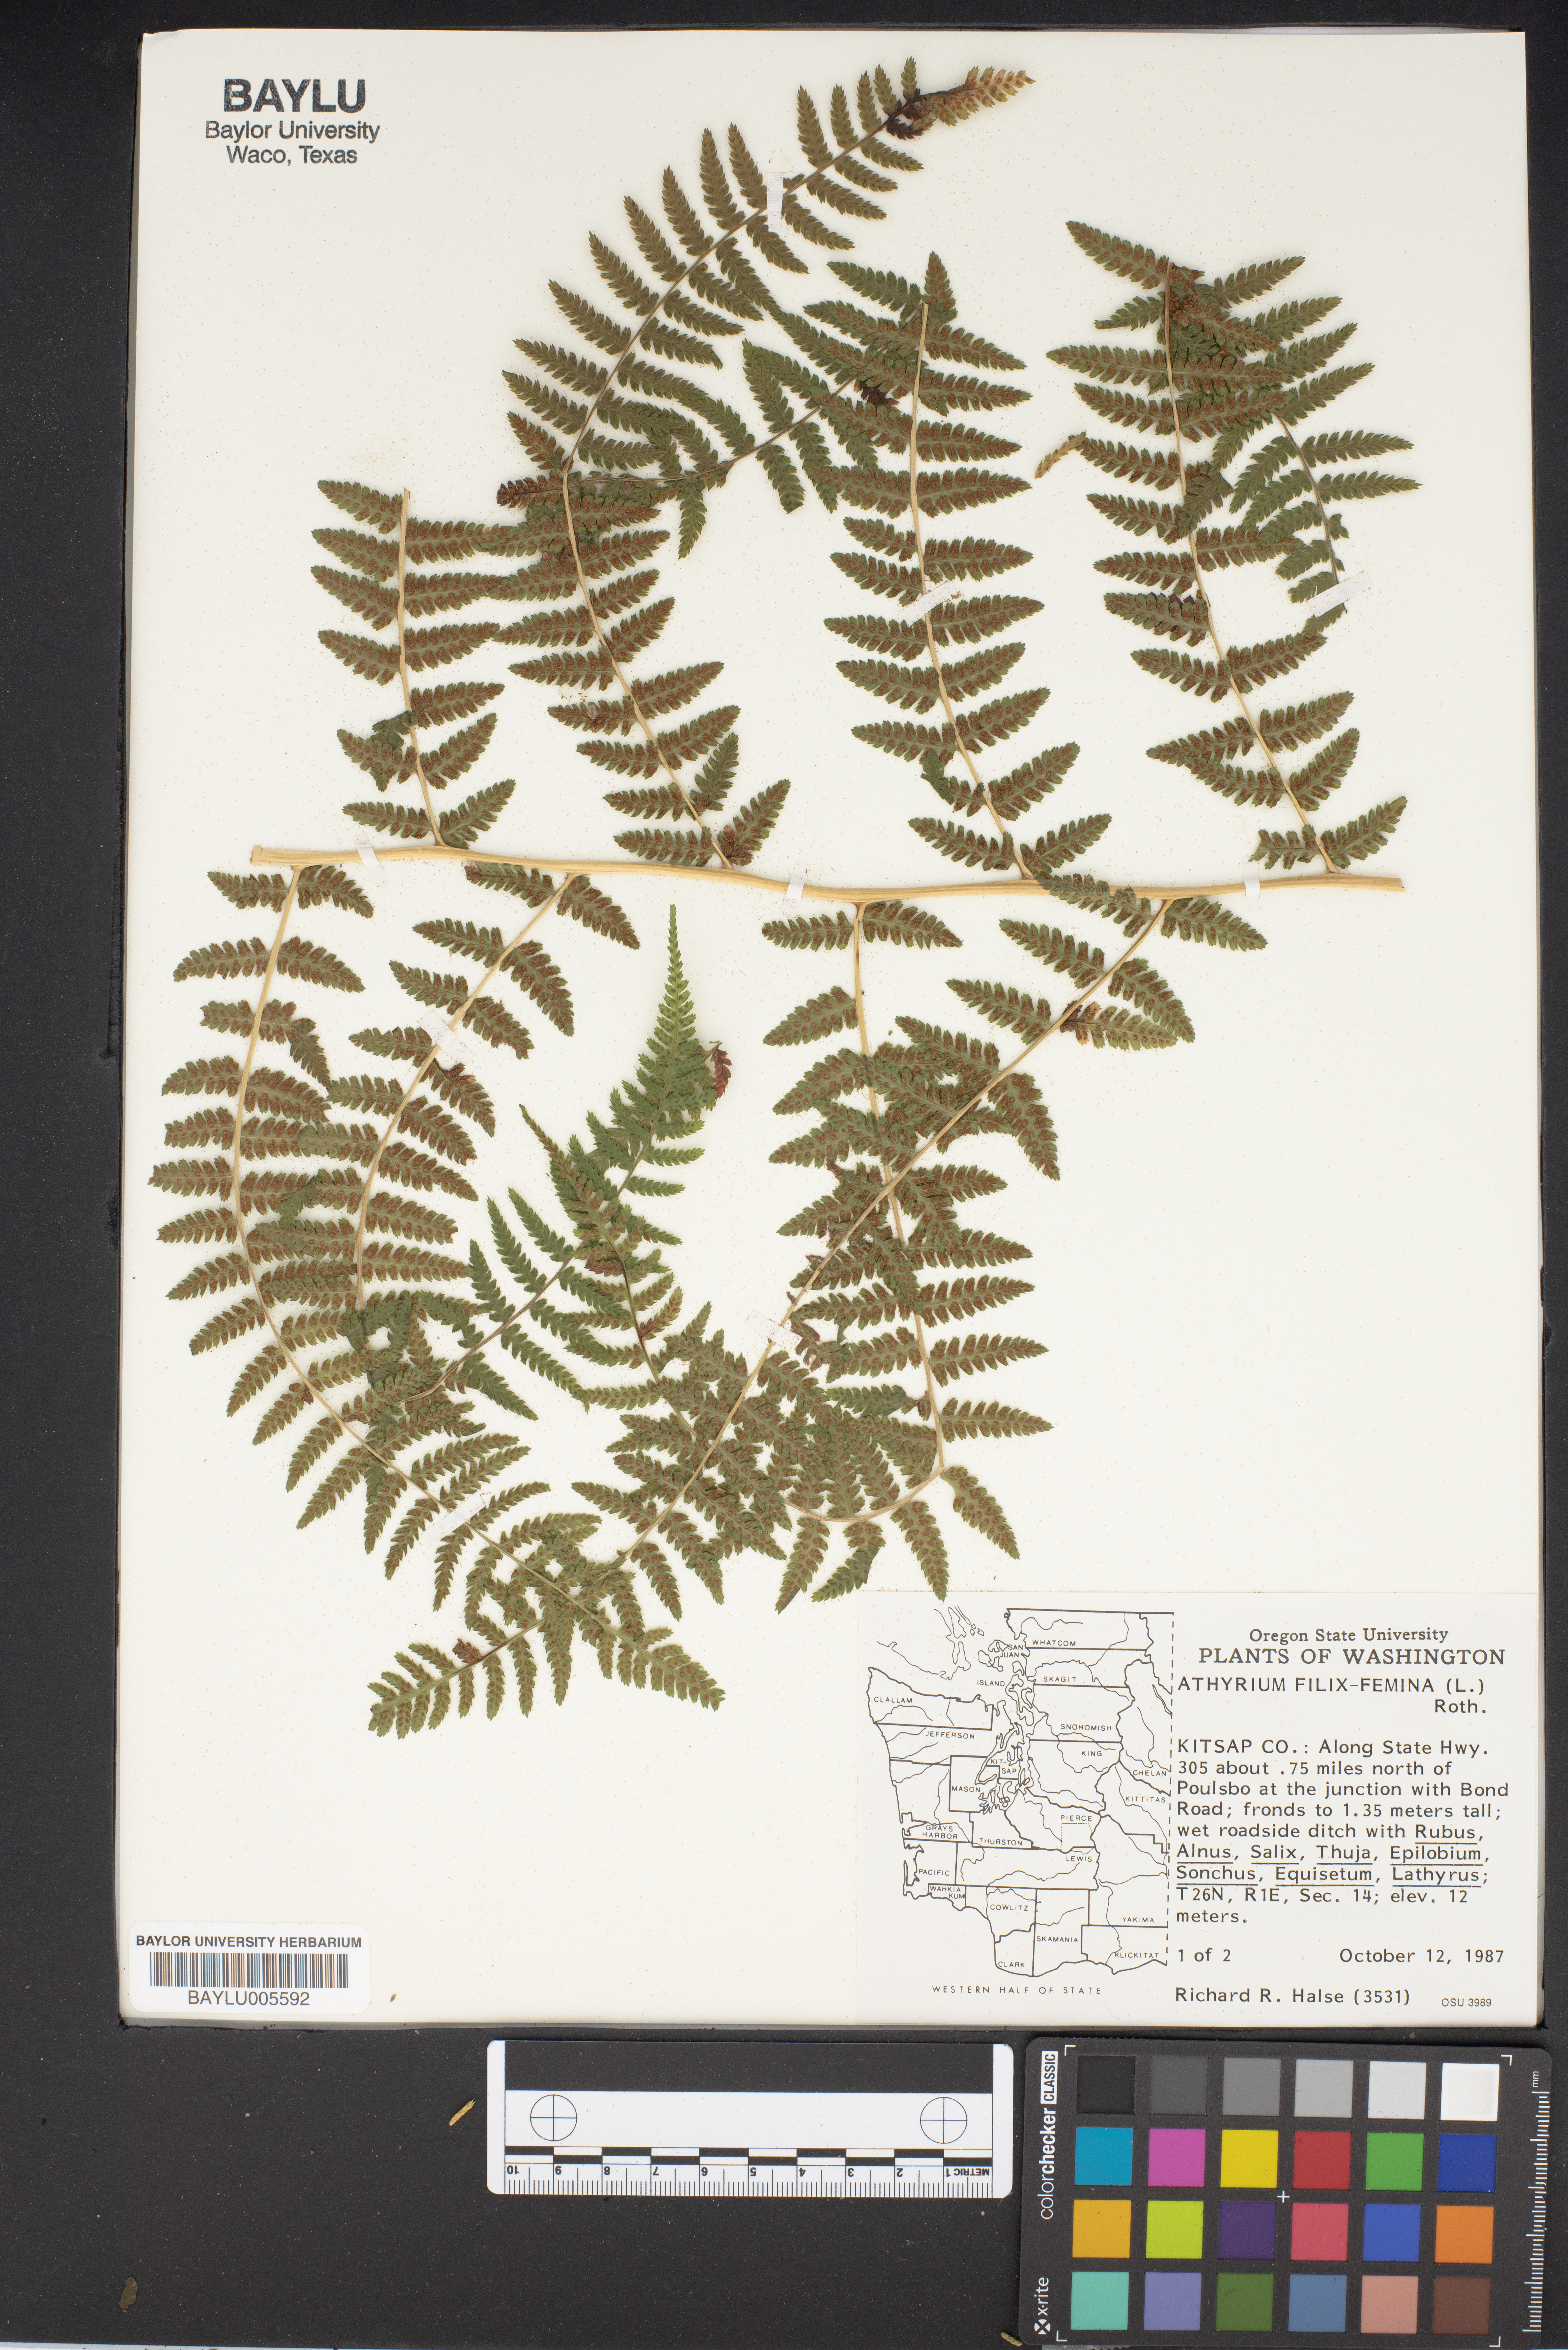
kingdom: Plantae
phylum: Tracheophyta
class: Polypodiopsida
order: Polypodiales
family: Athyriaceae
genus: Athyrium
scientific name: Athyrium filix-femina
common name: Lady fern
